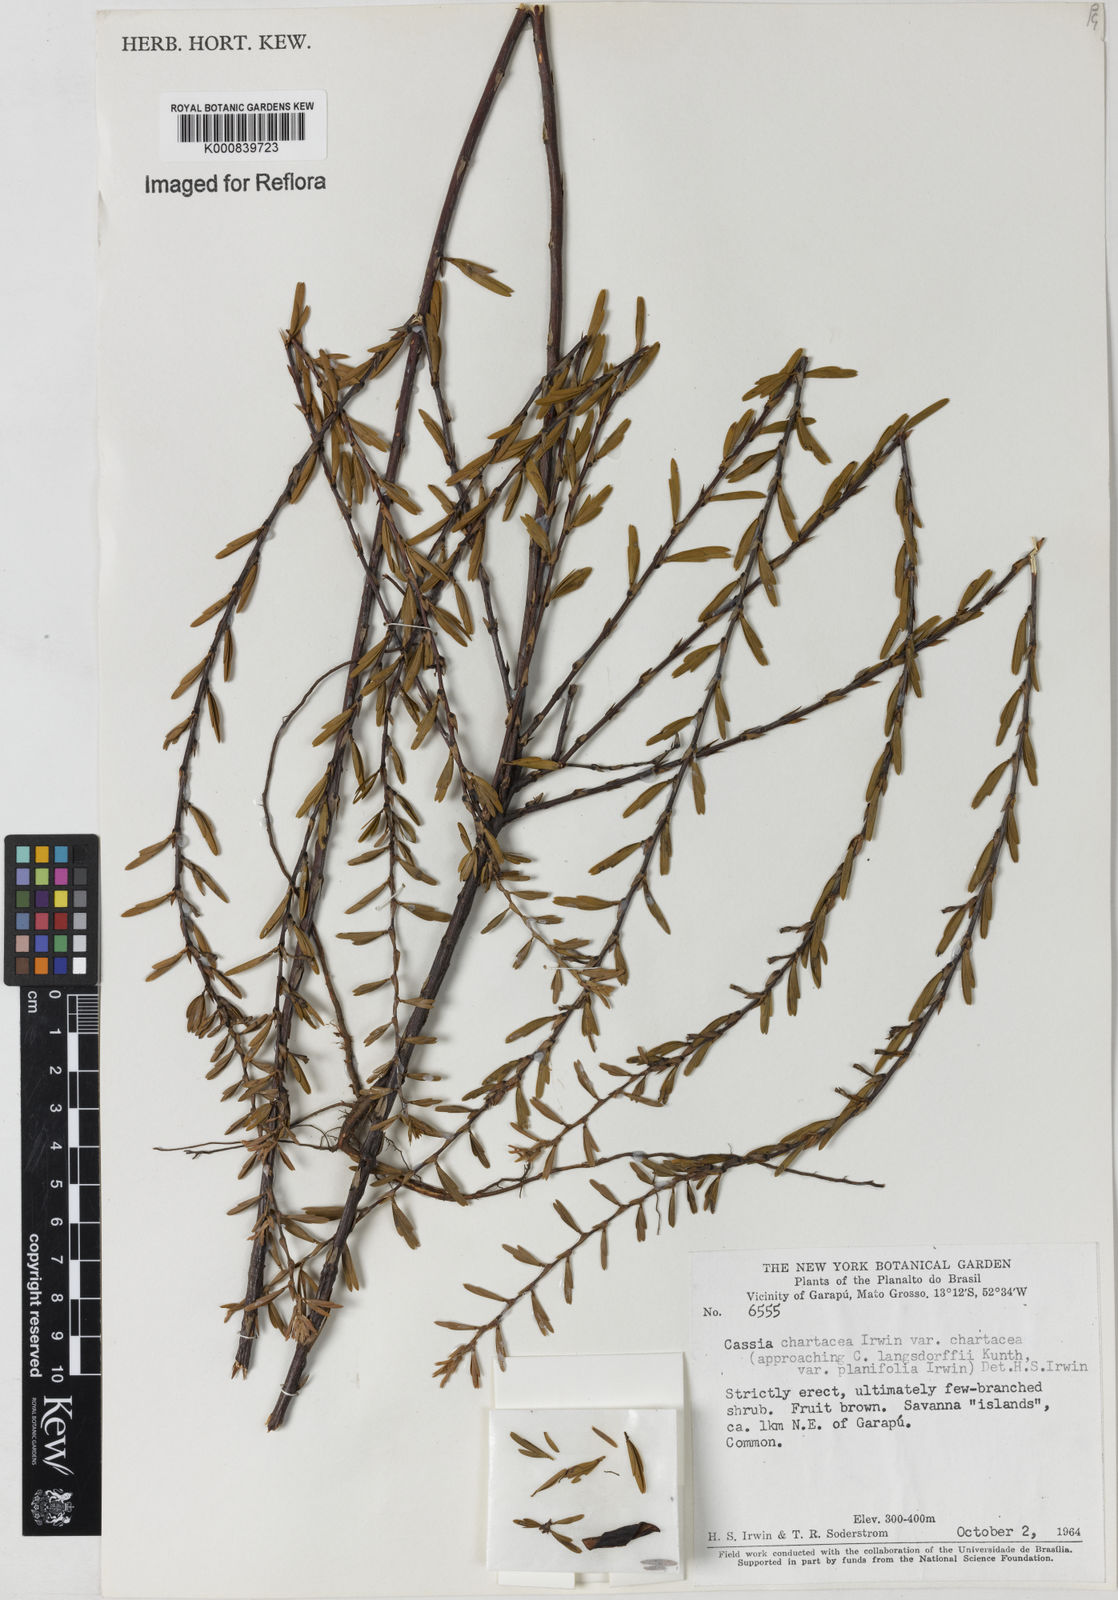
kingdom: Plantae
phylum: Tracheophyta
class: Magnoliopsida
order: Fabales
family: Fabaceae
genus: Chamaecrista
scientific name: Chamaecrista langsdorffii
